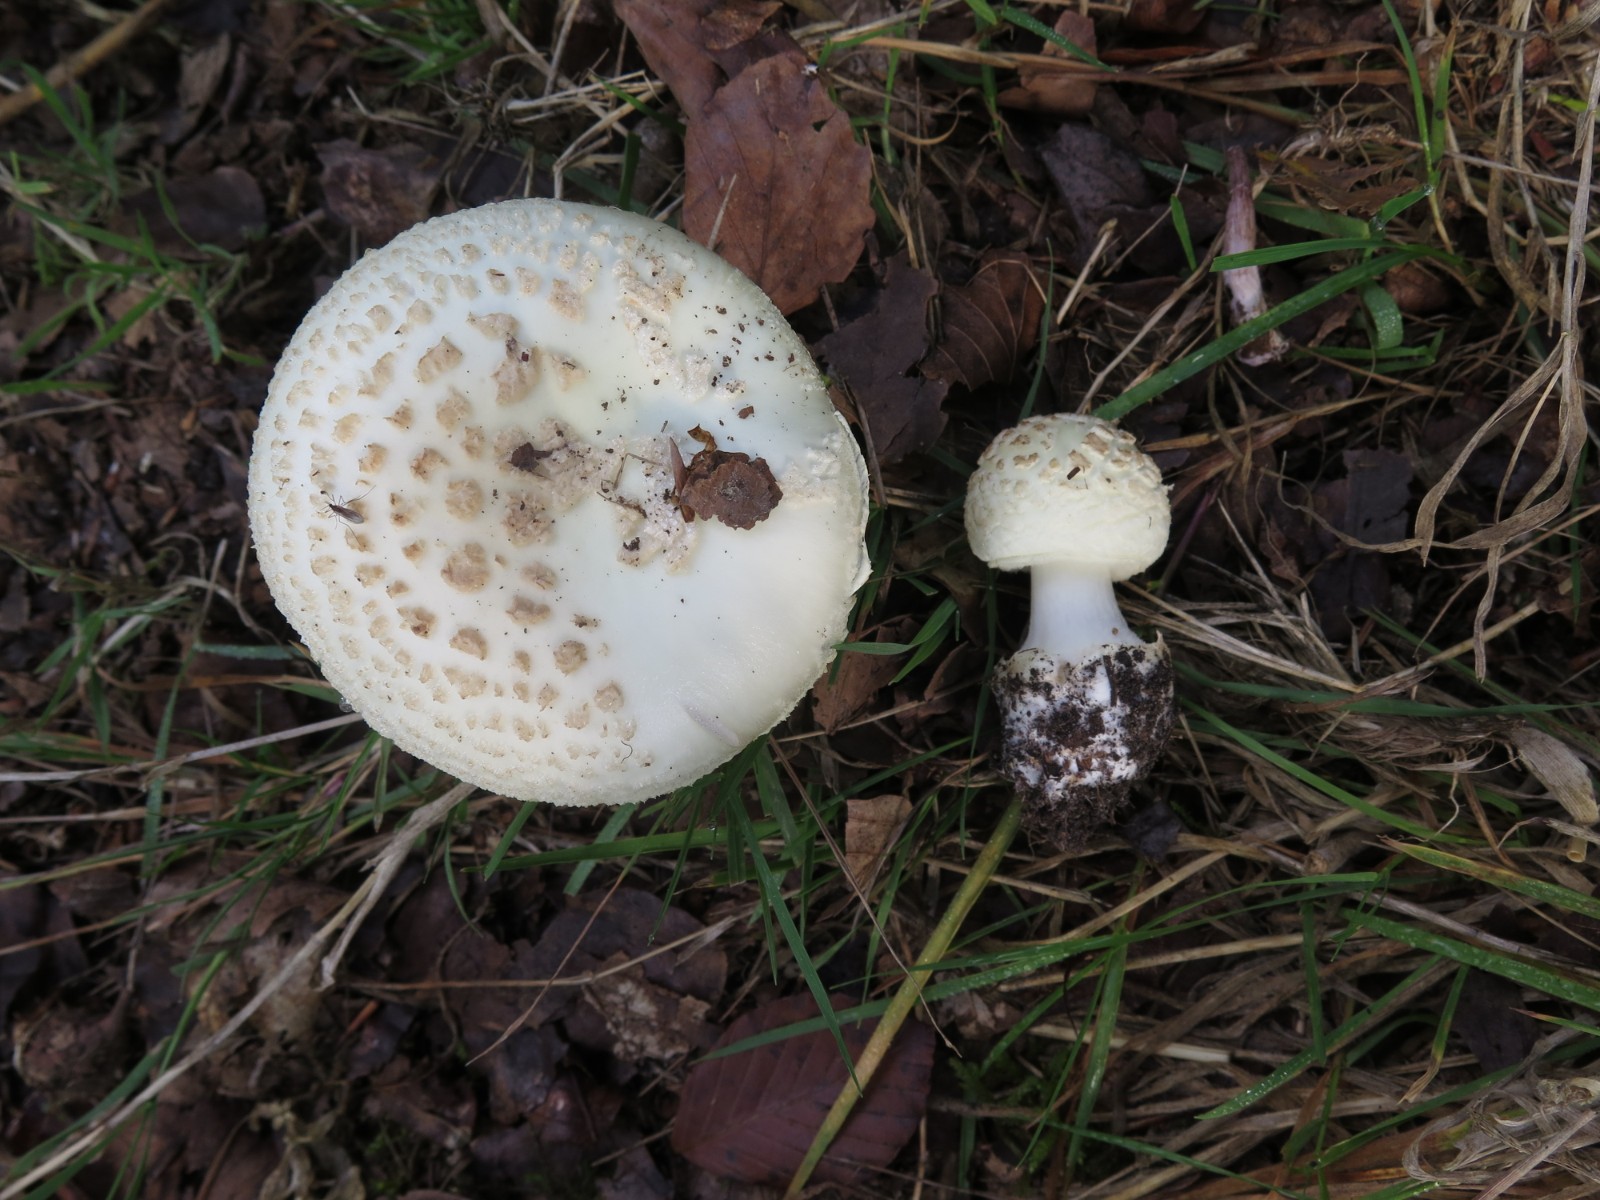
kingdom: Fungi
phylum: Basidiomycota
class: Agaricomycetes
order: Agaricales
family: Amanitaceae
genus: Amanita
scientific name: Amanita citrina
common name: False death-cap
